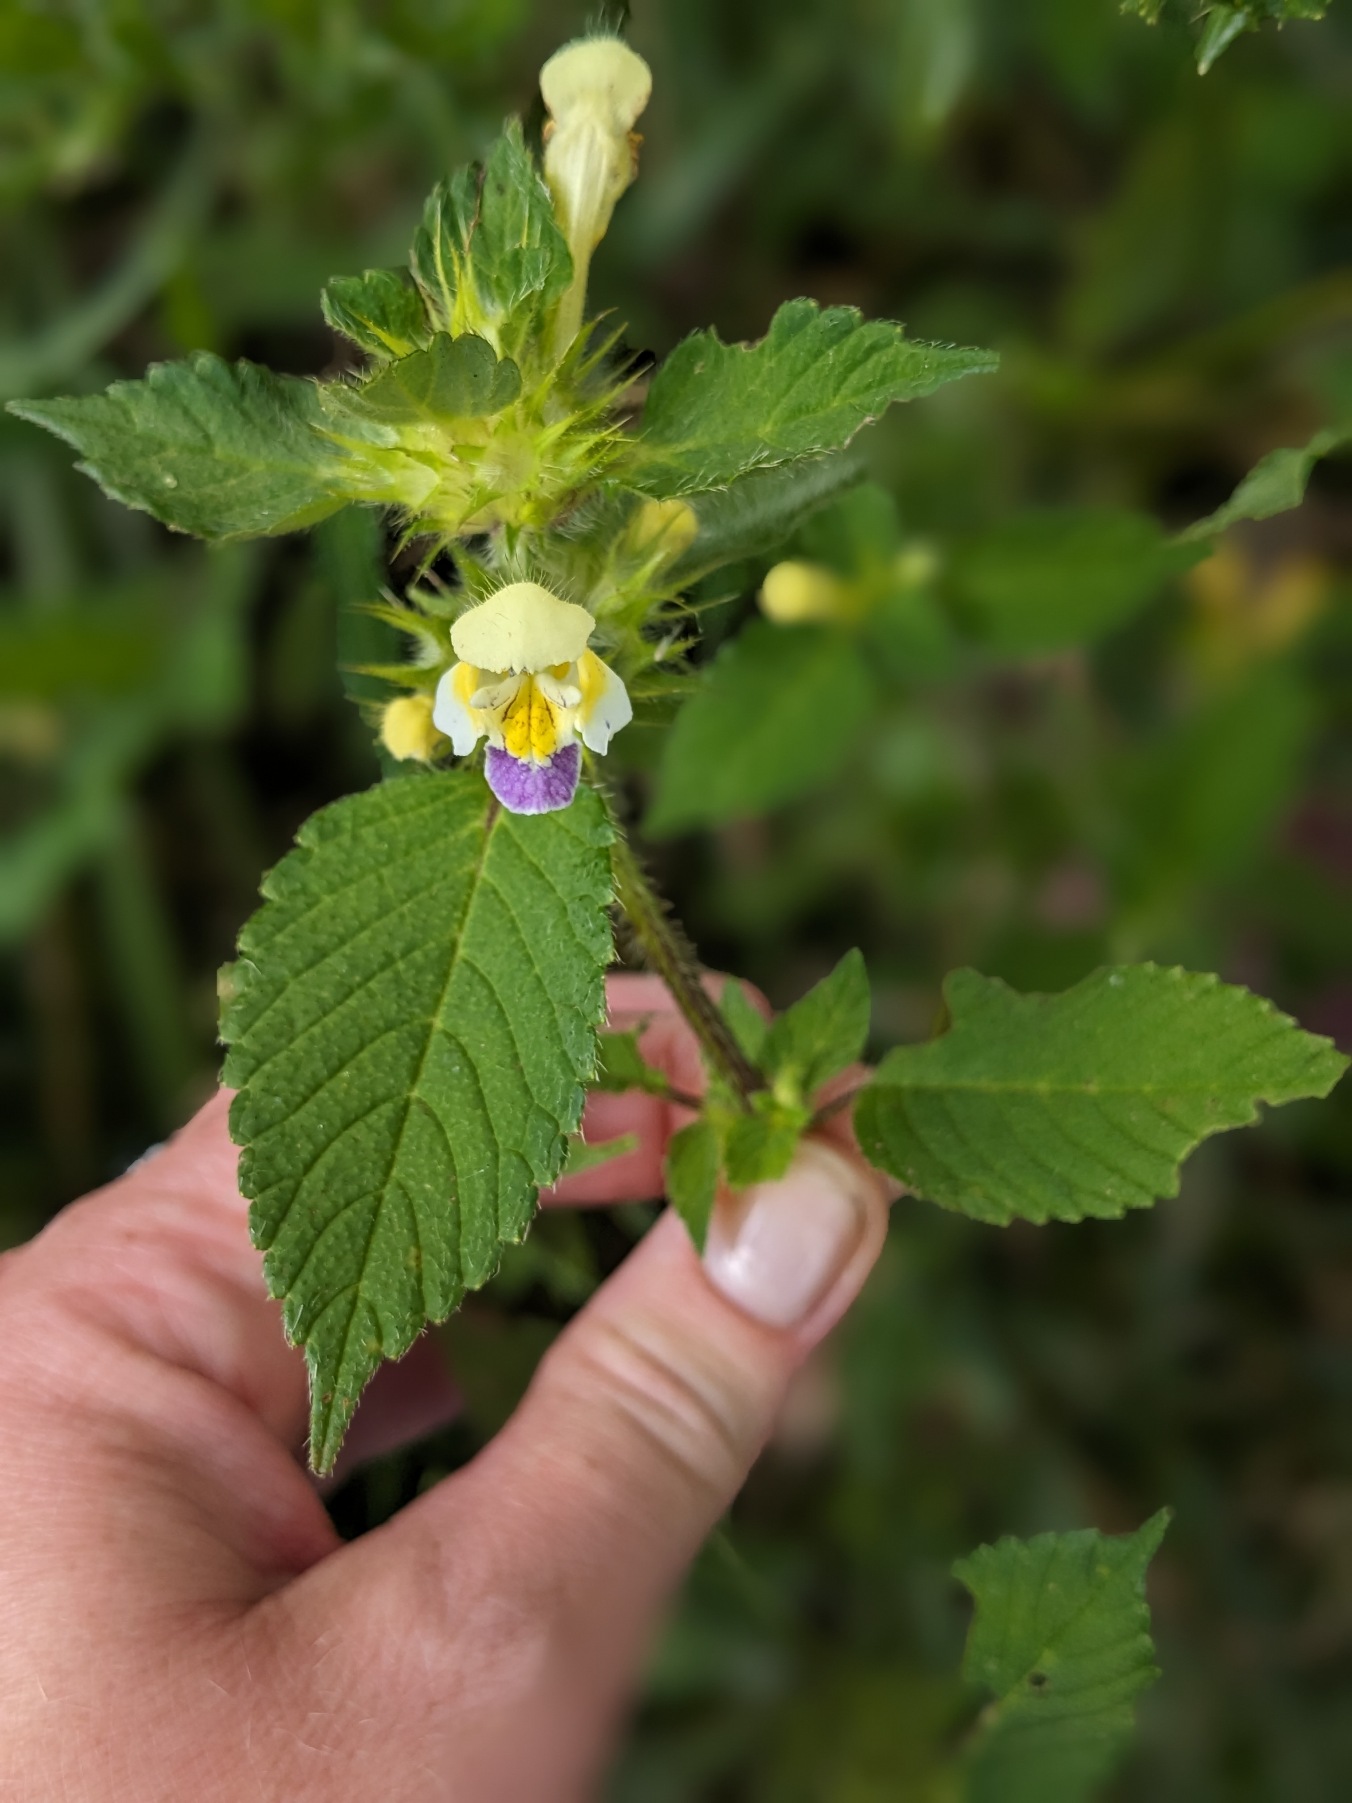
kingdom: Plantae
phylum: Tracheophyta
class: Magnoliopsida
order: Lamiales
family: Lamiaceae
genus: Galeopsis
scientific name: Galeopsis speciosa
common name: Hamp-hanekro
